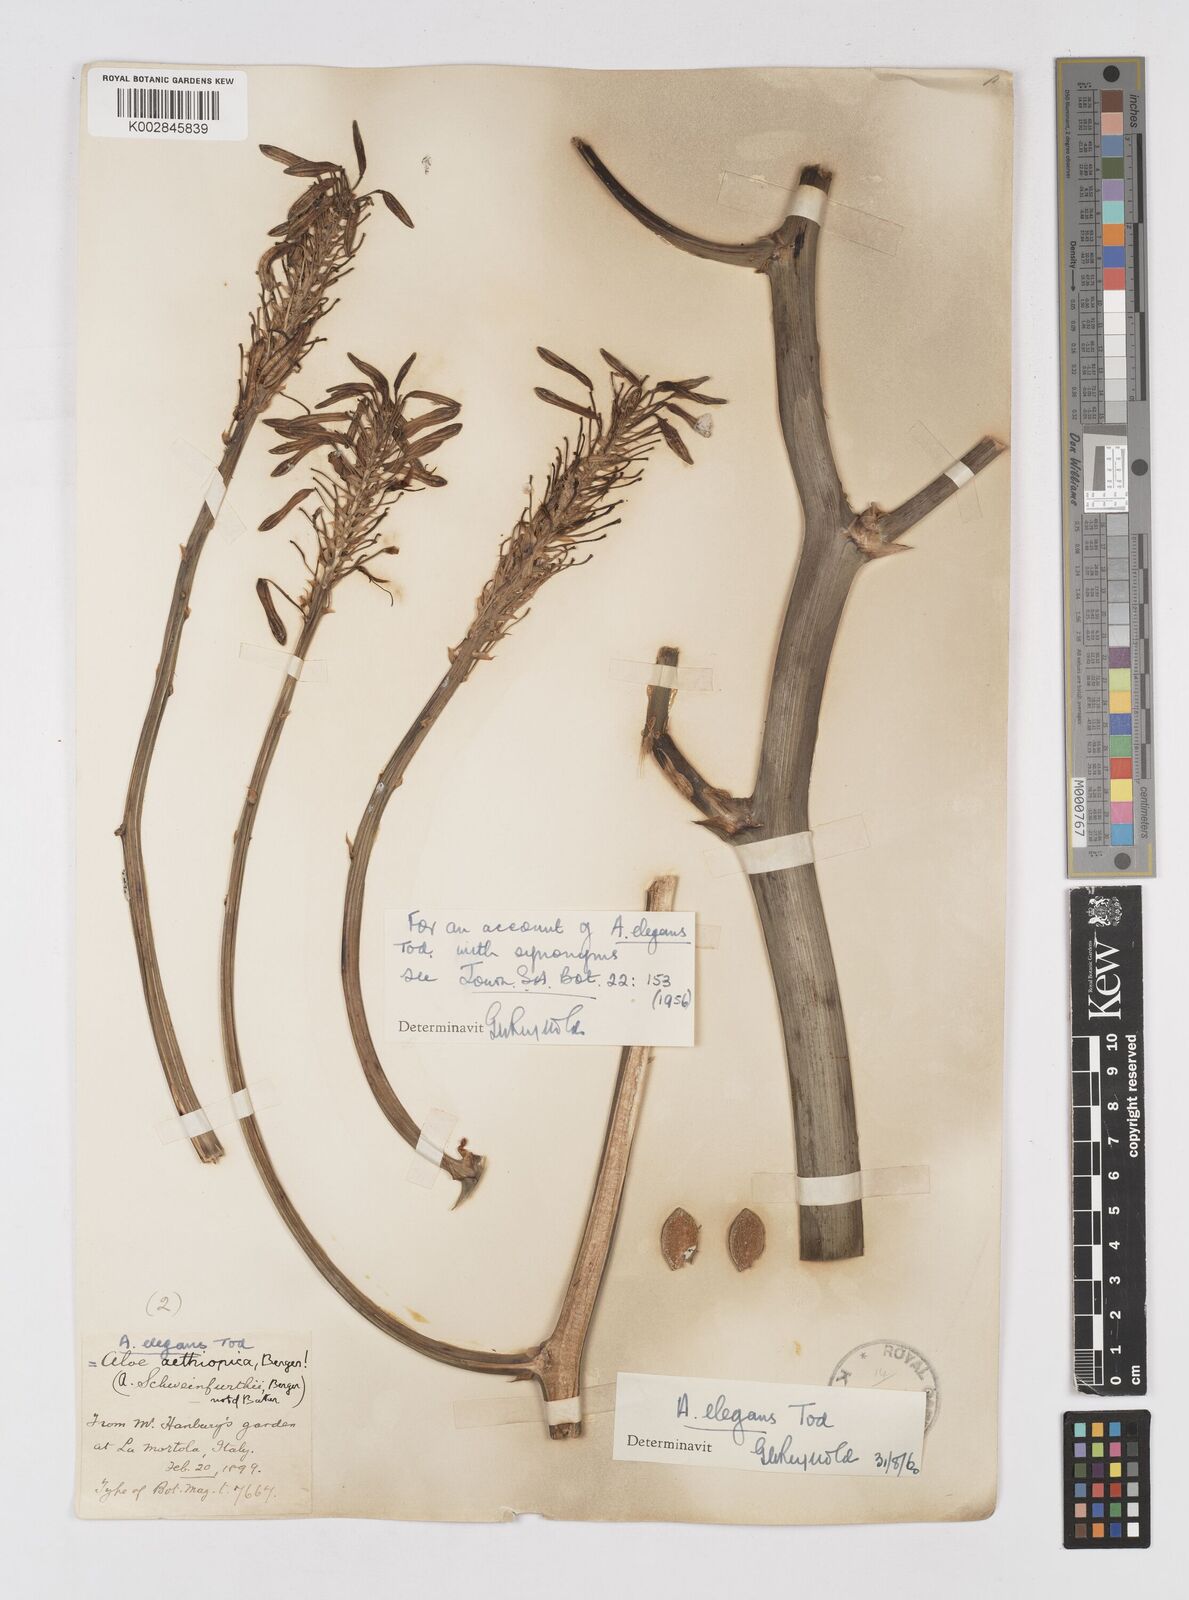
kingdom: Plantae
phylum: Tracheophyta
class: Liliopsida
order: Asparagales
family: Asphodelaceae
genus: Aloe
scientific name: Aloe elegans
